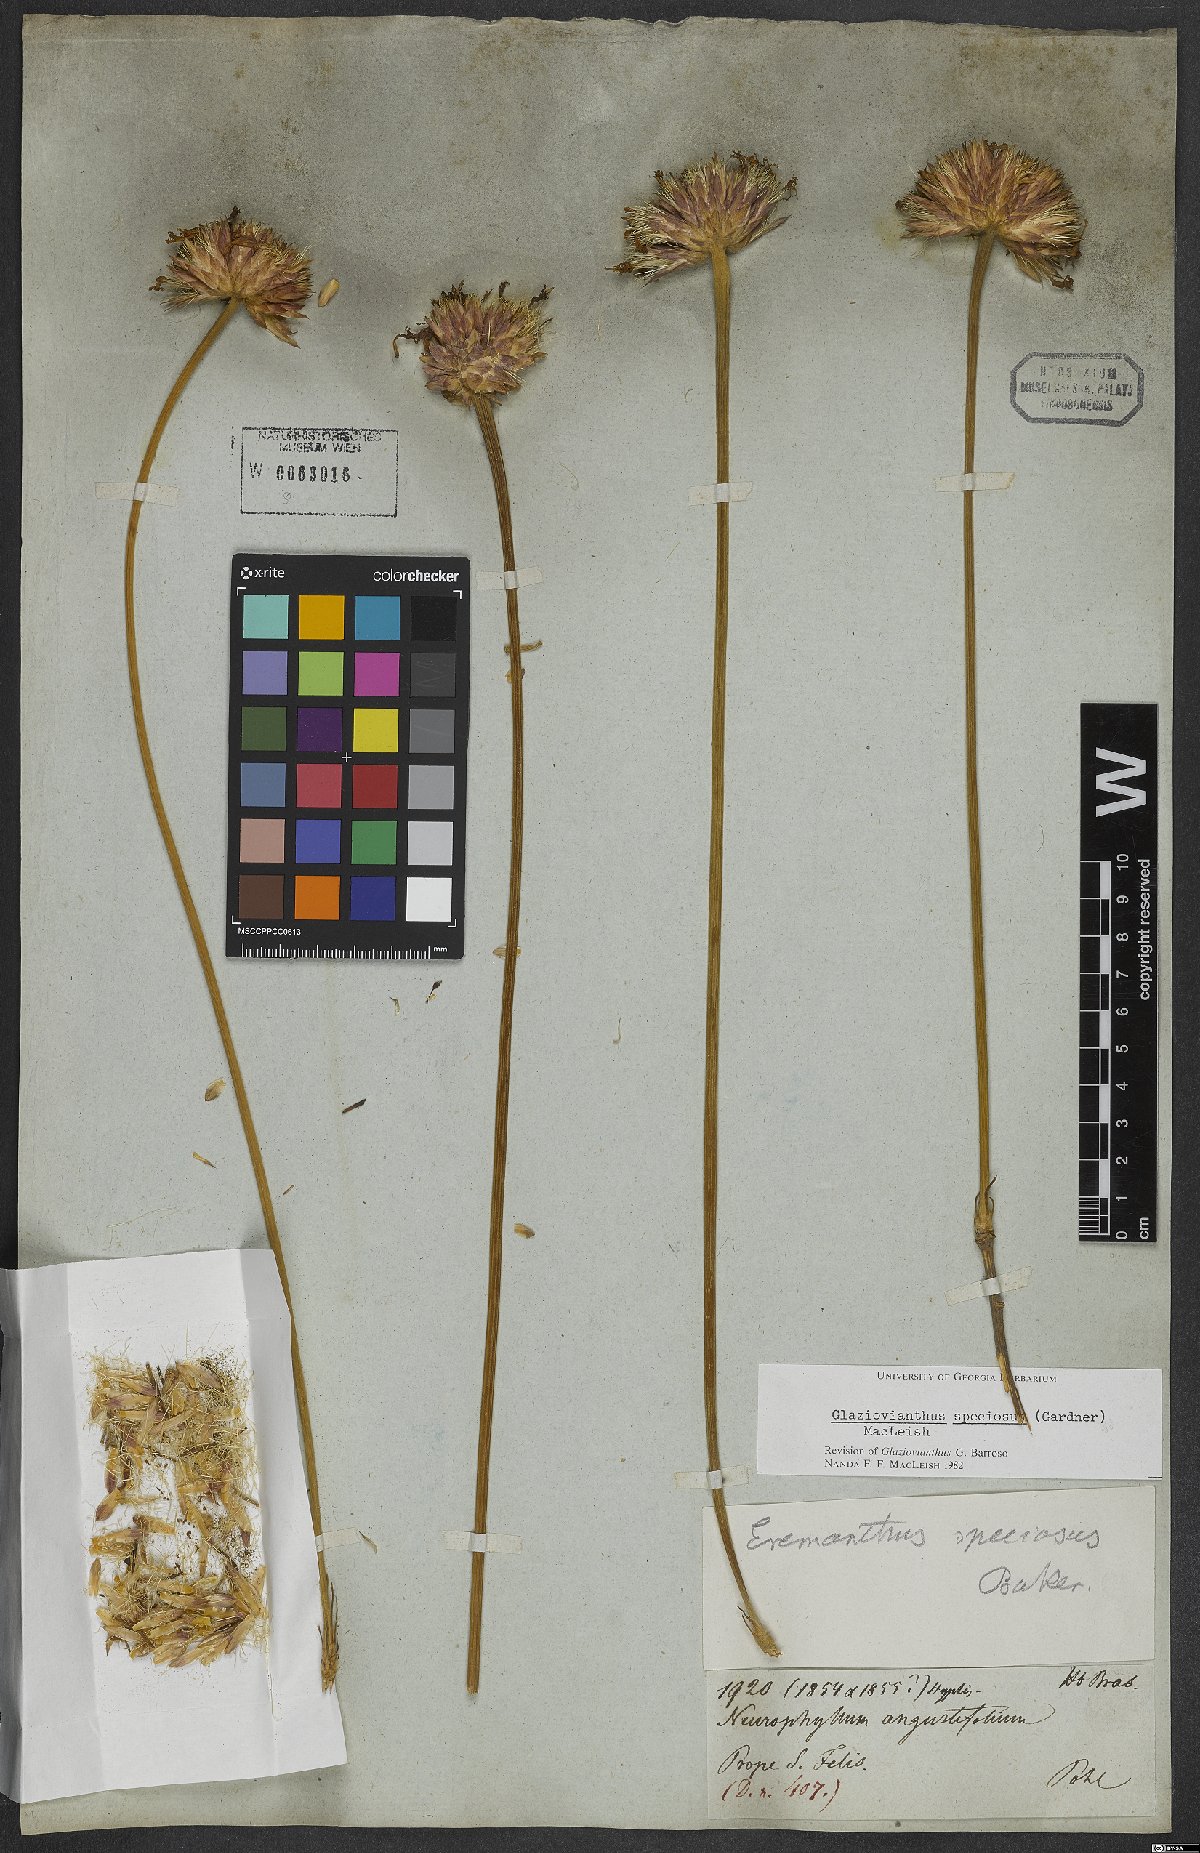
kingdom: Plantae
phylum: Tracheophyta
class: Magnoliopsida
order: Asterales
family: Asteraceae
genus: Chresta
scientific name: Chresta speciosa
